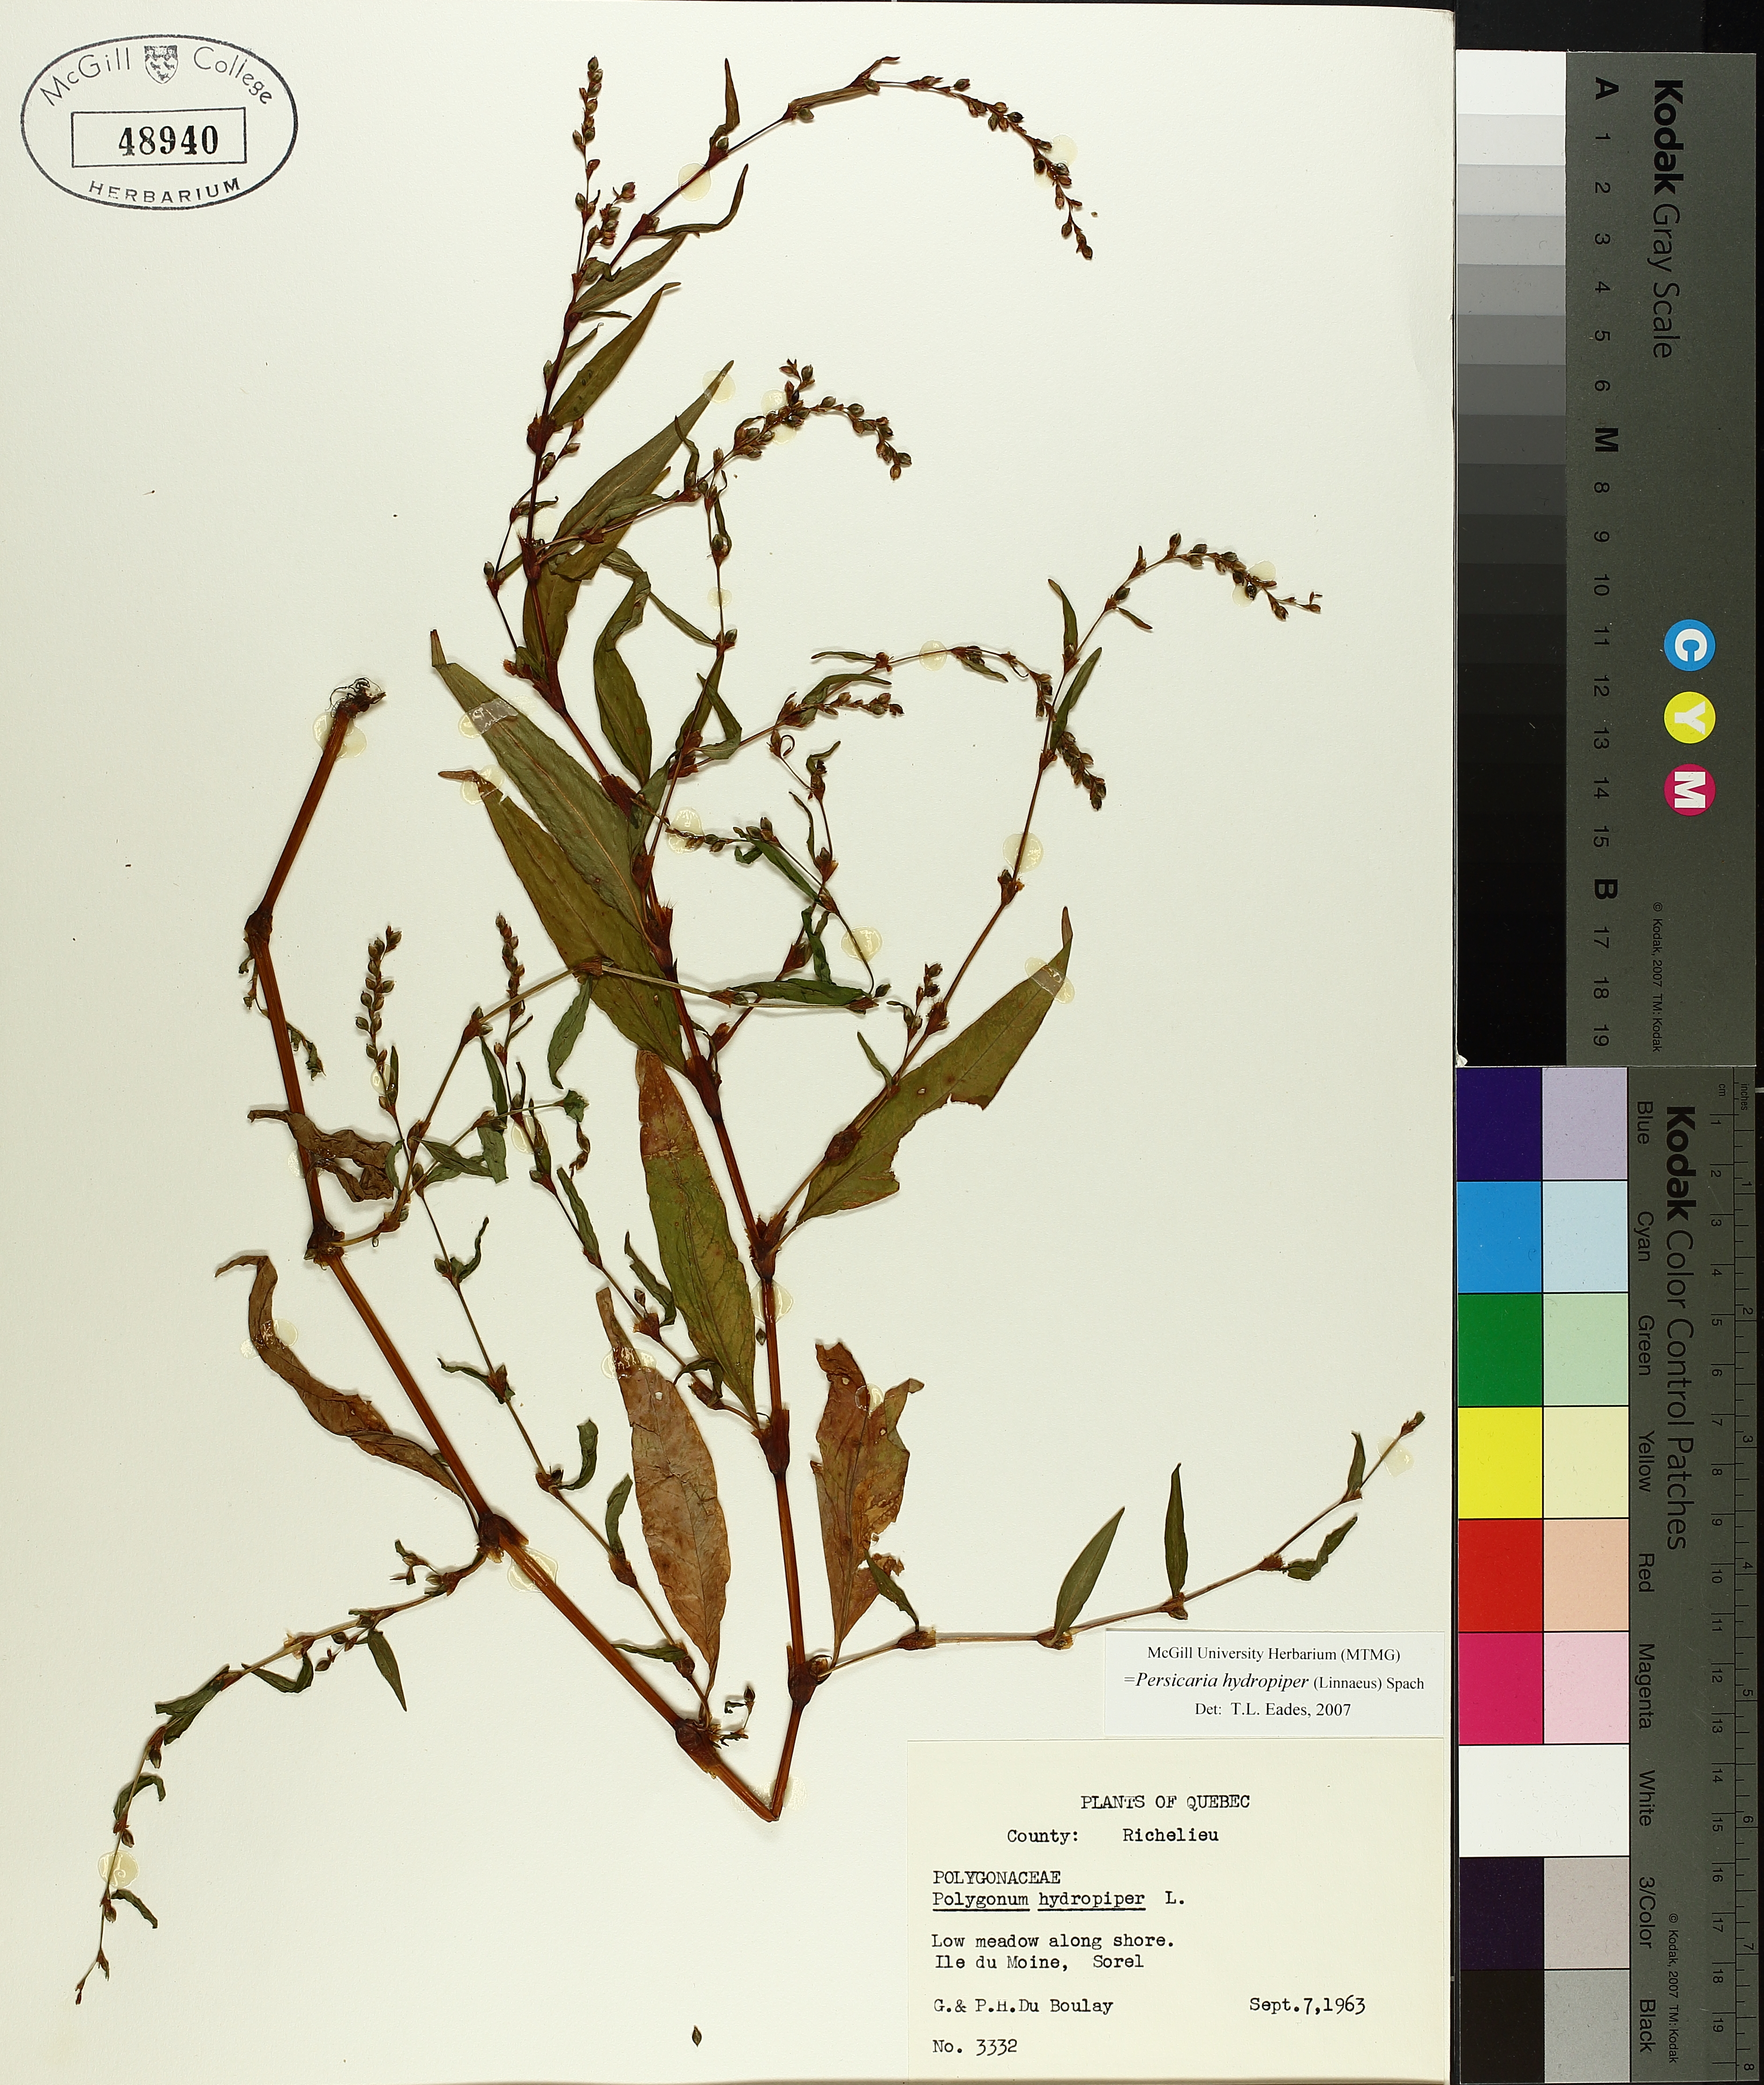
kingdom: Plantae
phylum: Tracheophyta
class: Magnoliopsida
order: Caryophyllales
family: Polygonaceae
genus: Persicaria
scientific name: Persicaria hydropiper
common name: Water-pepper
